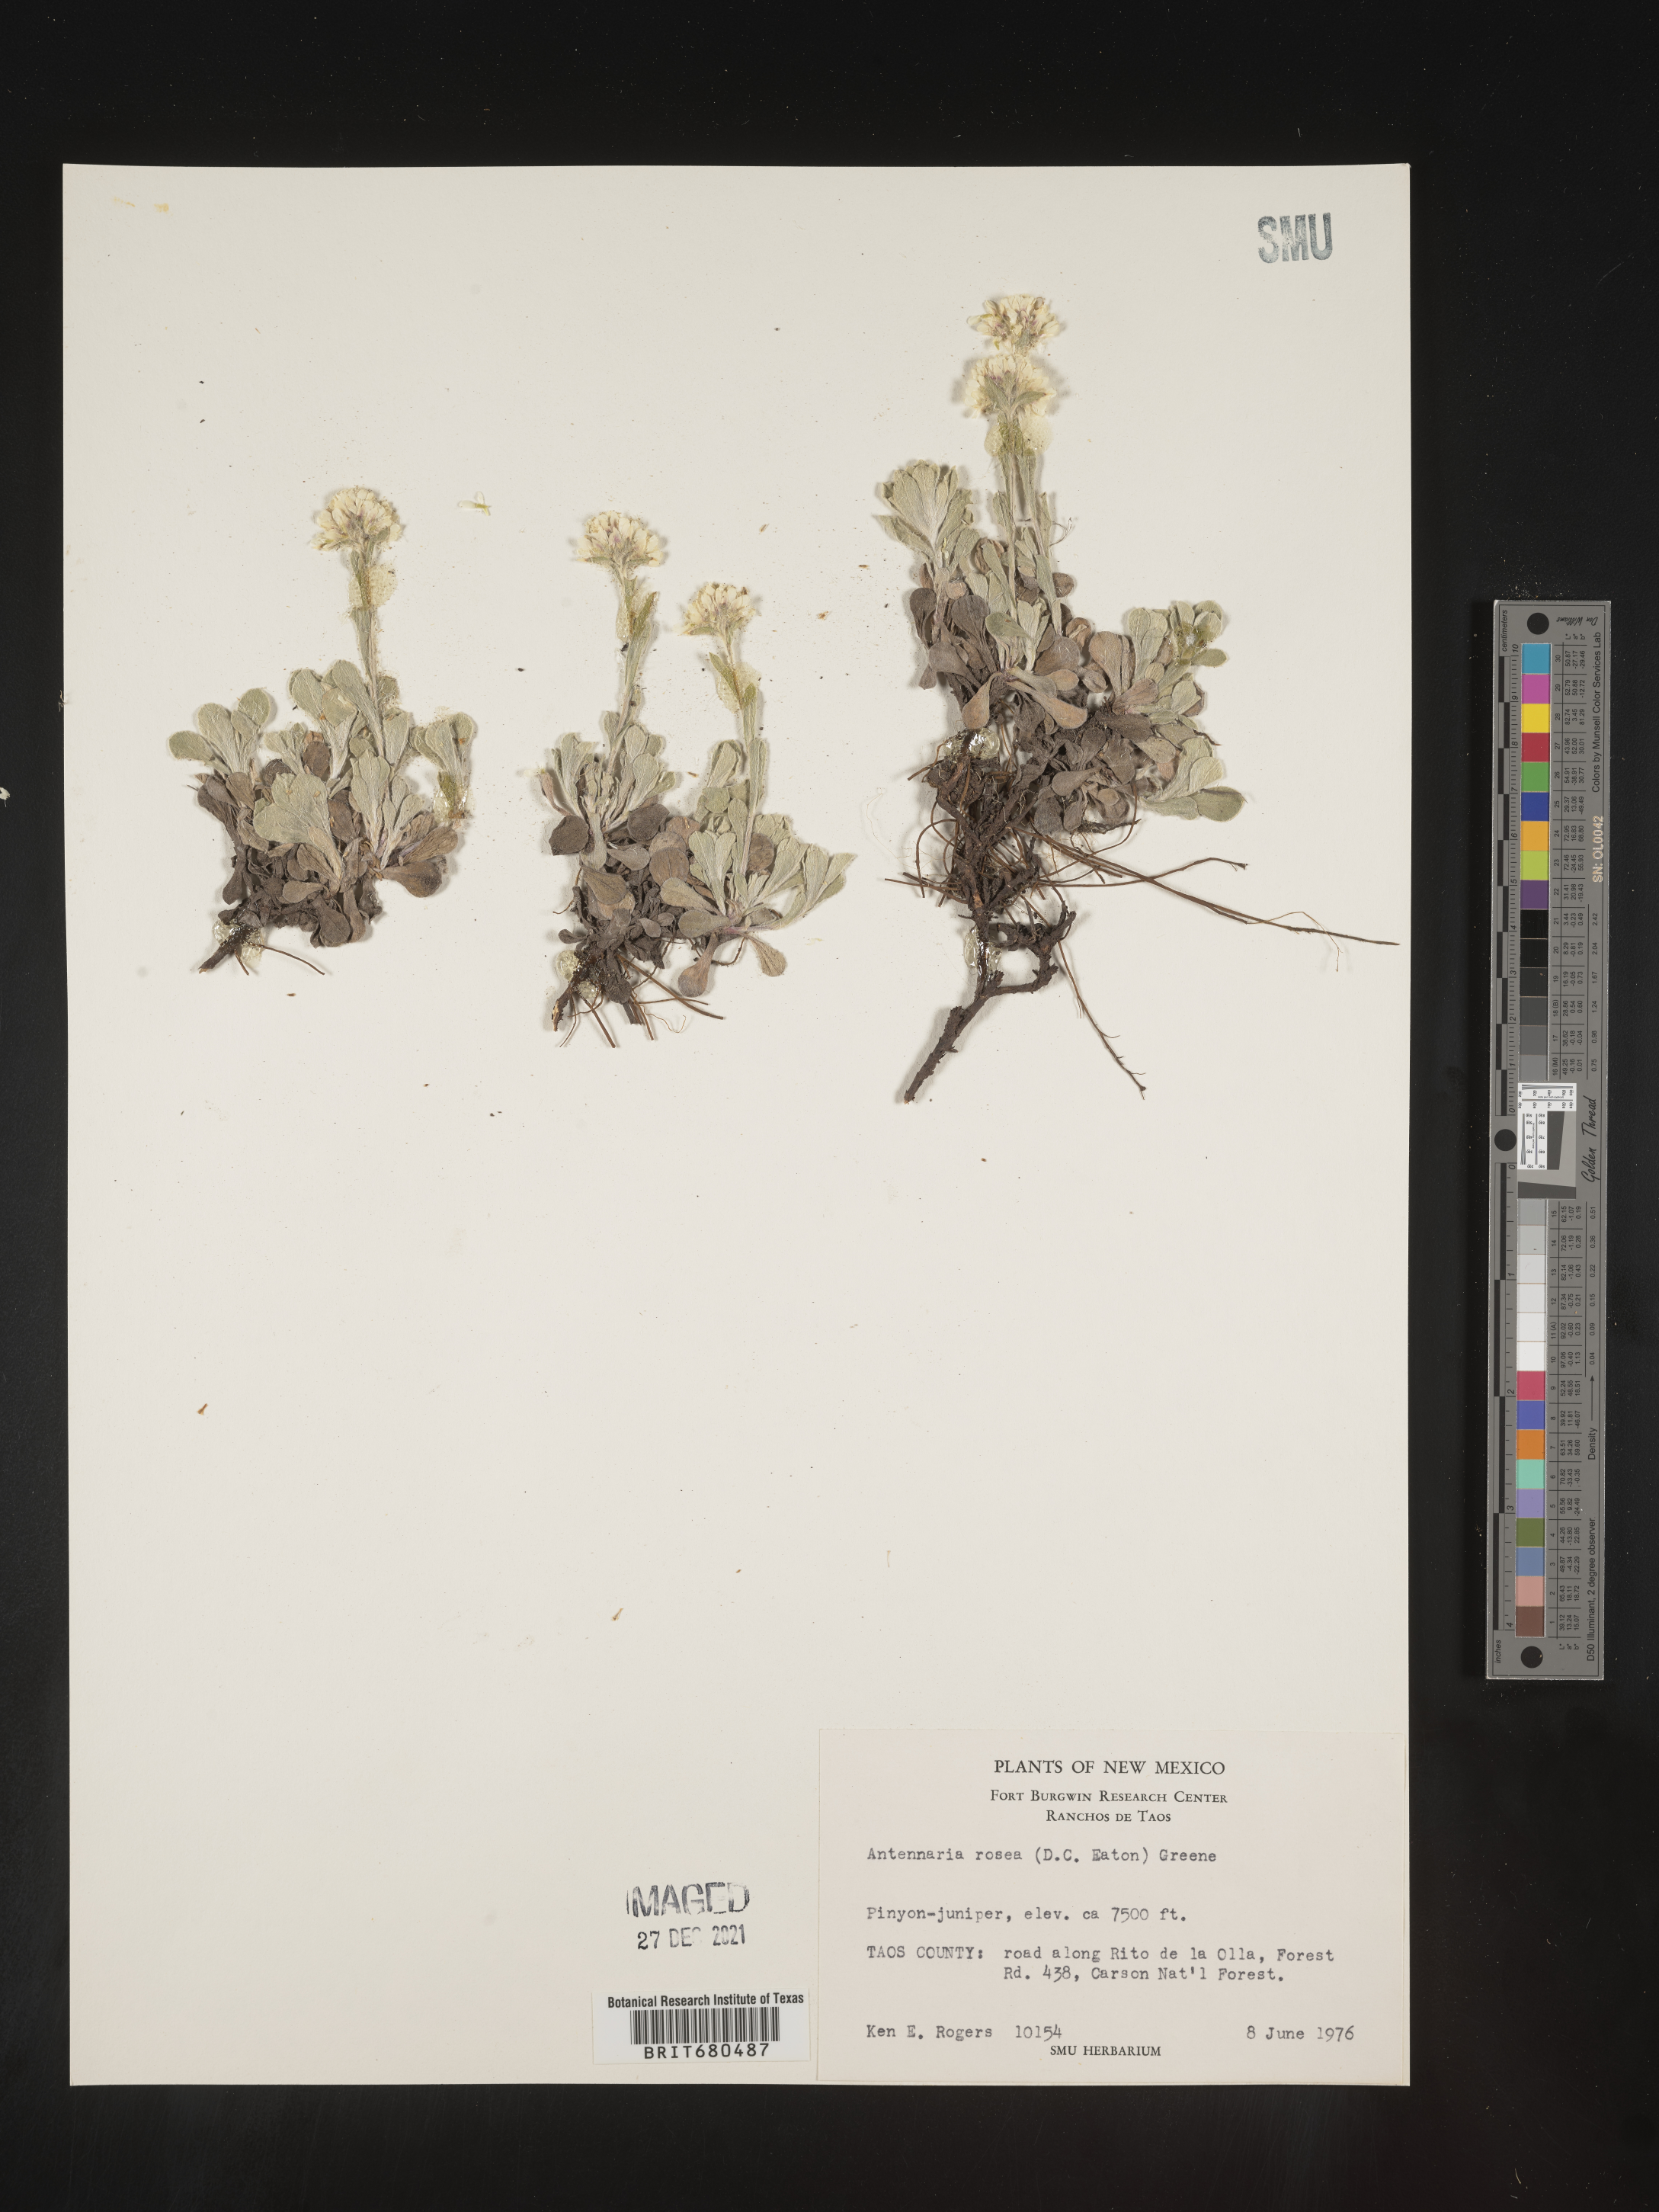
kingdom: Plantae
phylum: Tracheophyta
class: Magnoliopsida
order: Asterales
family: Asteraceae
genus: Antennaria
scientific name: Antennaria rosea
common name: Rosy pussytoes
